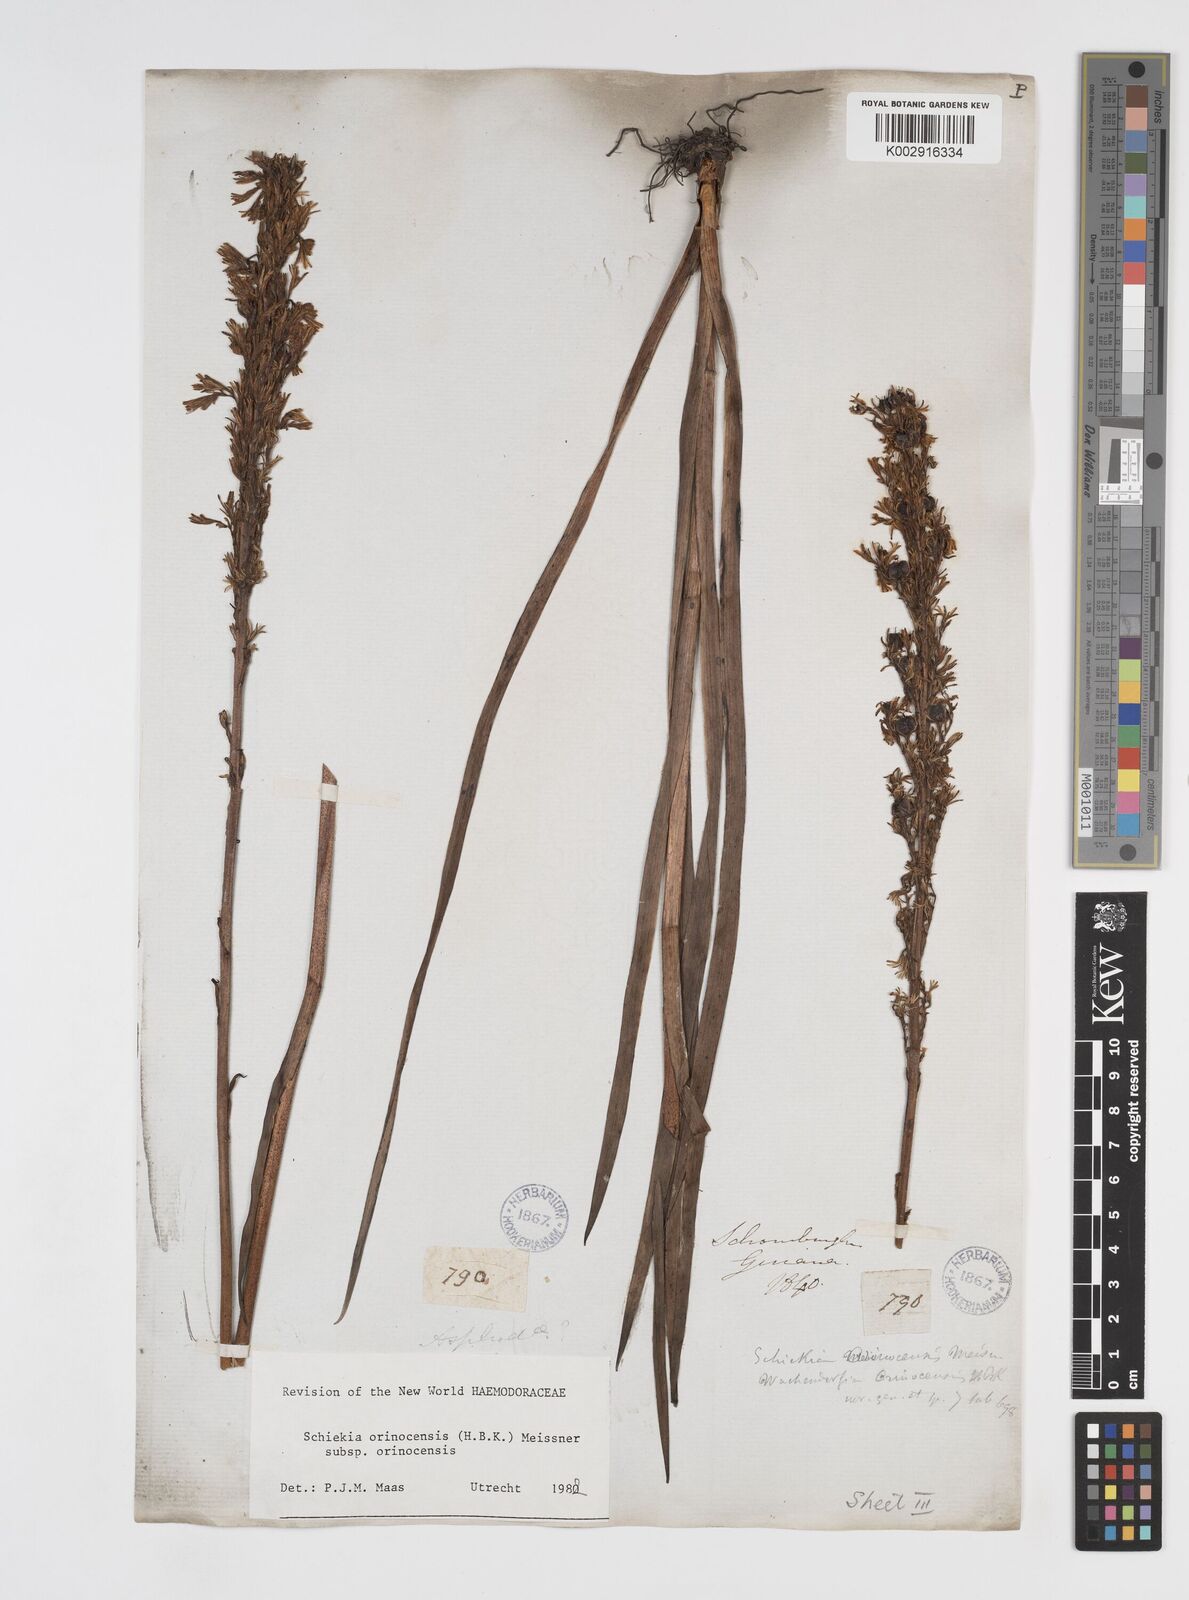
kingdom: Plantae
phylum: Tracheophyta
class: Liliopsida
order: Commelinales
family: Haemodoraceae
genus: Schiekia
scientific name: Schiekia orinocensis
